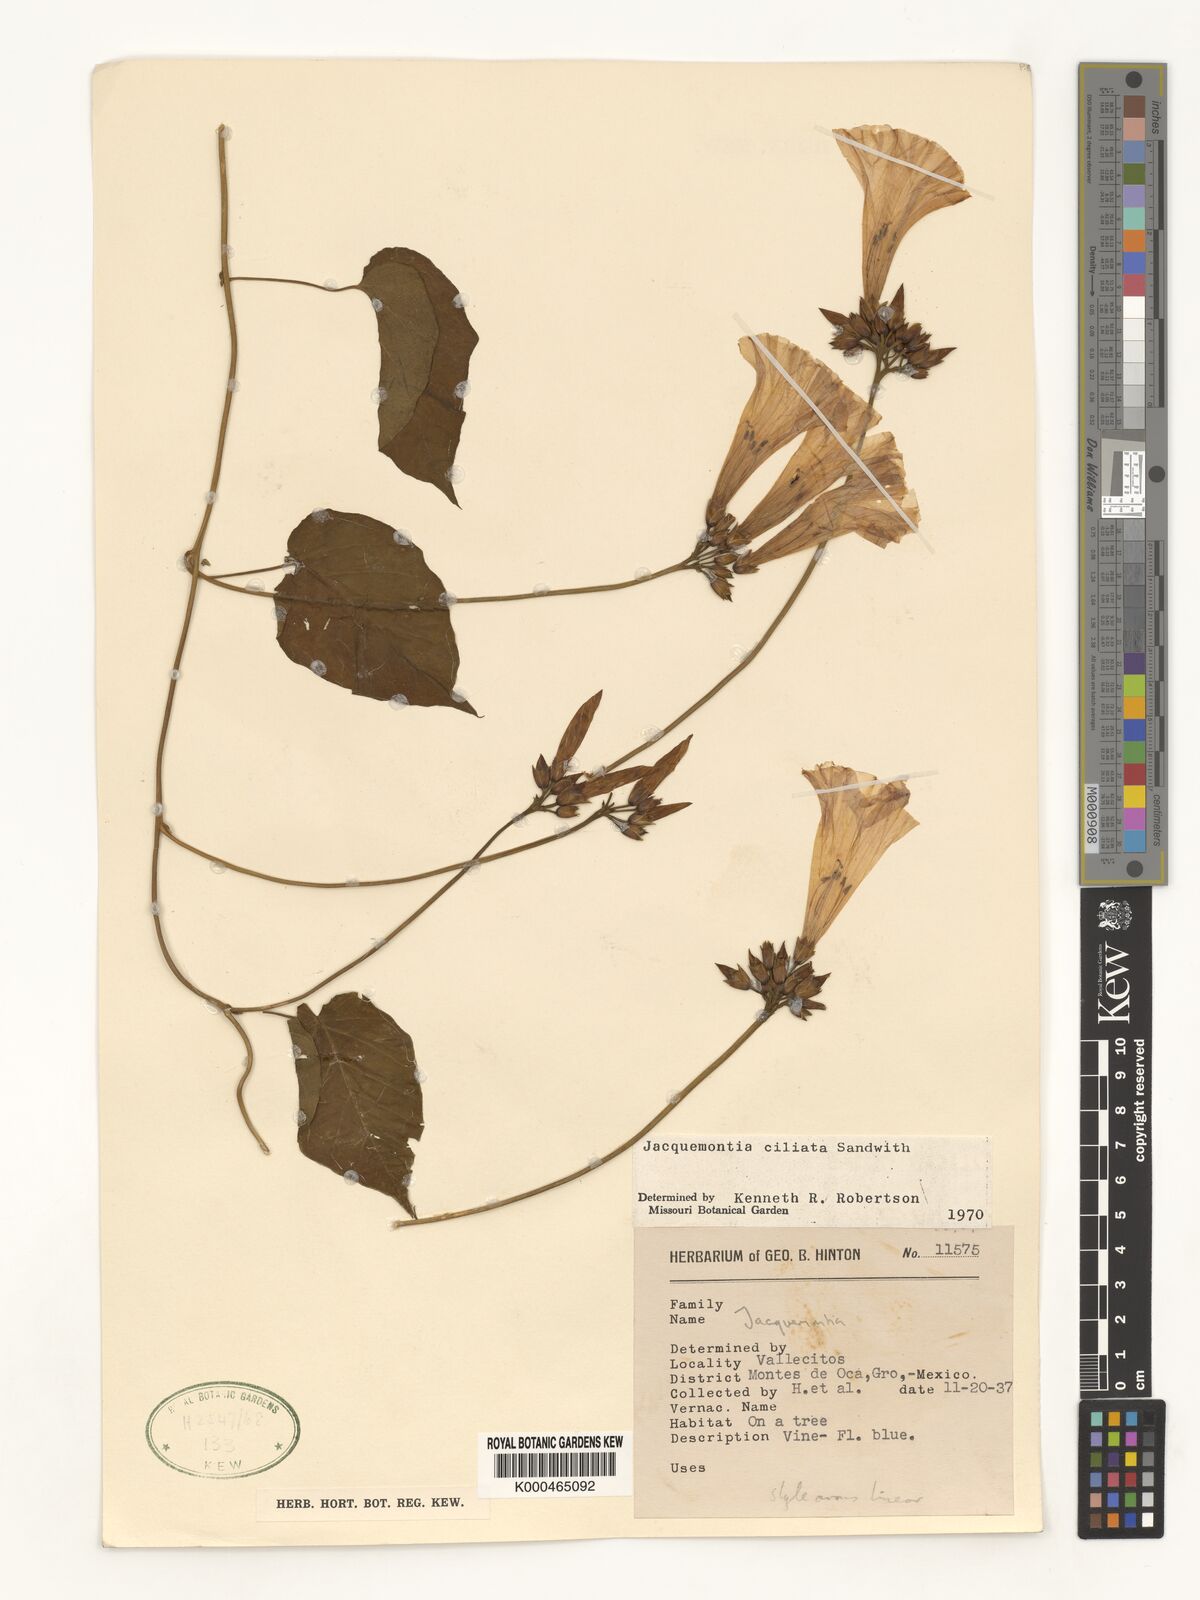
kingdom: Plantae
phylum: Tracheophyta
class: Magnoliopsida
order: Solanales
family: Convolvulaceae
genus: Jacquemontia
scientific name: Jacquemontia gabrielii
